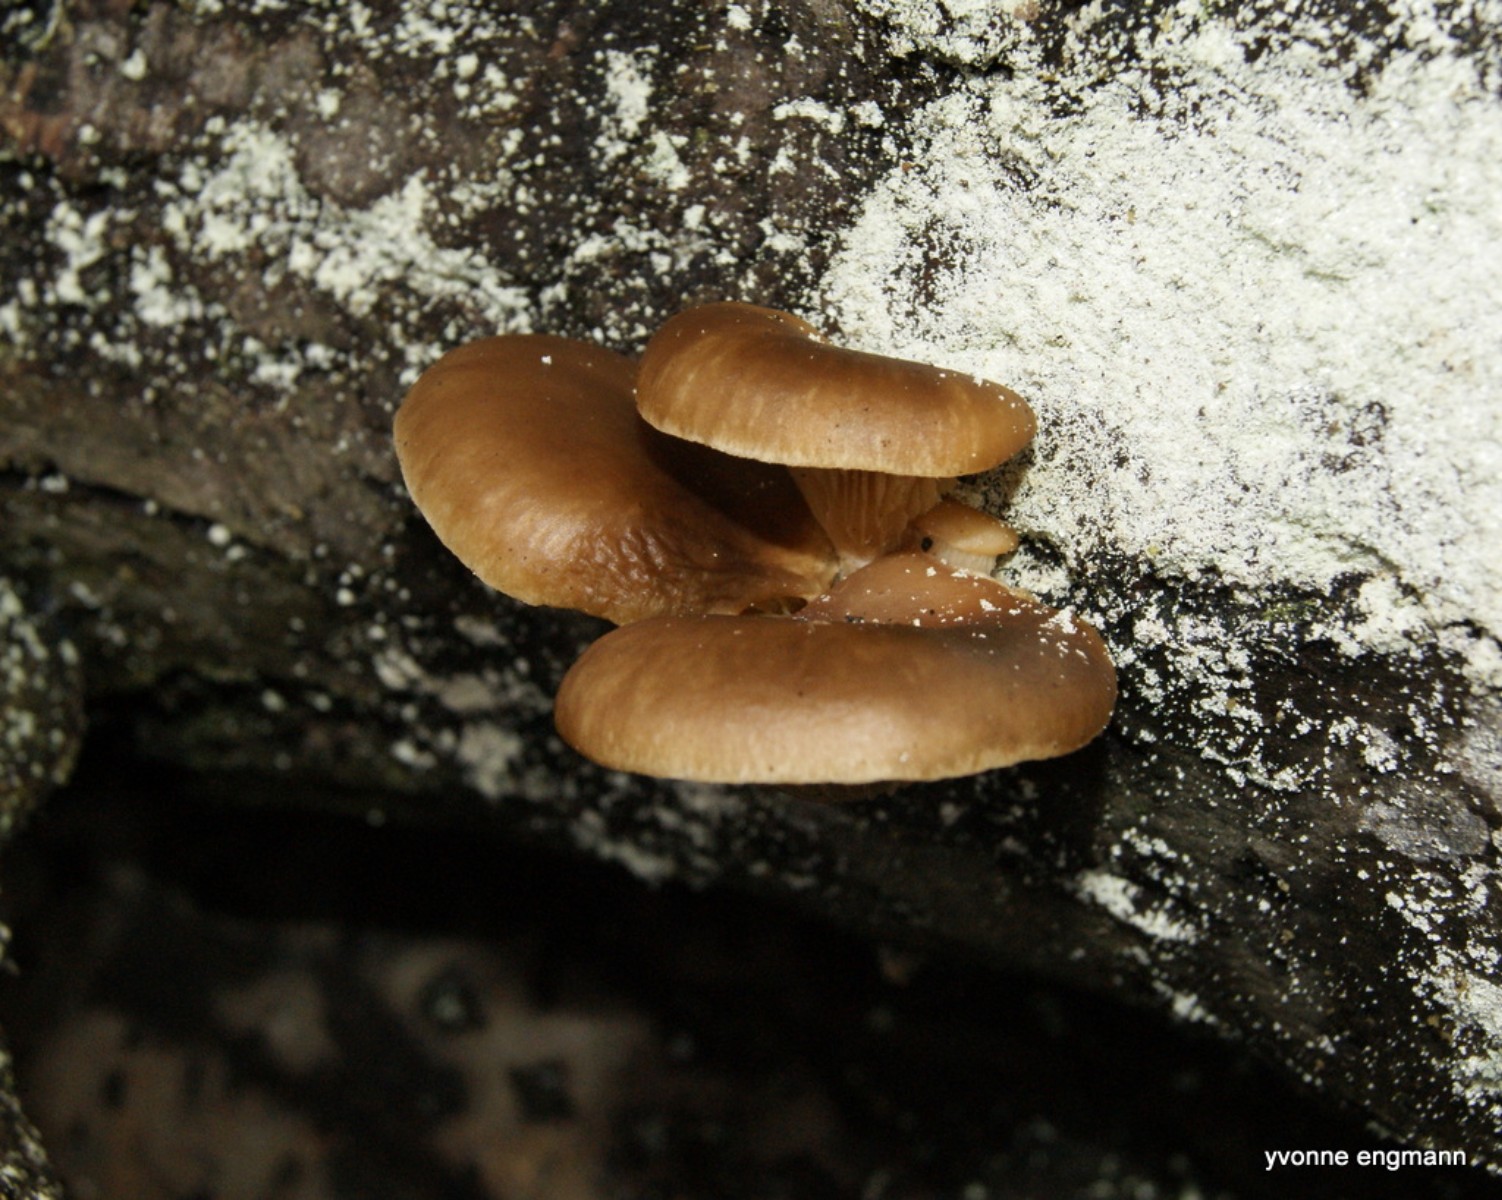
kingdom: Fungi
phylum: Basidiomycota
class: Agaricomycetes
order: Agaricales
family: Pleurotaceae
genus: Pleurotus
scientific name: Pleurotus ostreatus
